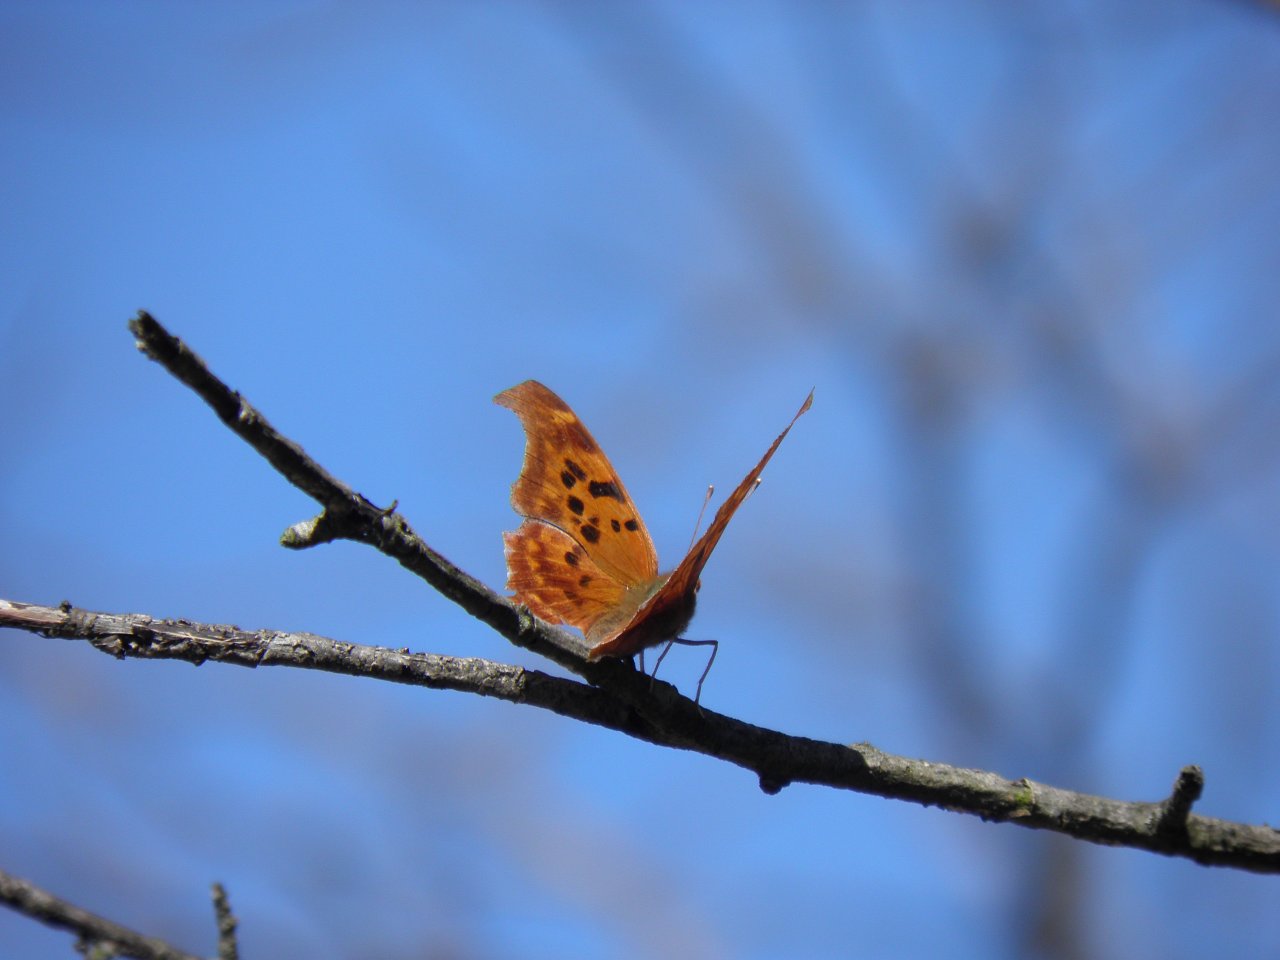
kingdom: Animalia
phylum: Arthropoda
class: Insecta
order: Lepidoptera
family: Nymphalidae
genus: Polygonia
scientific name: Polygonia interrogationis
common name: Question Mark
